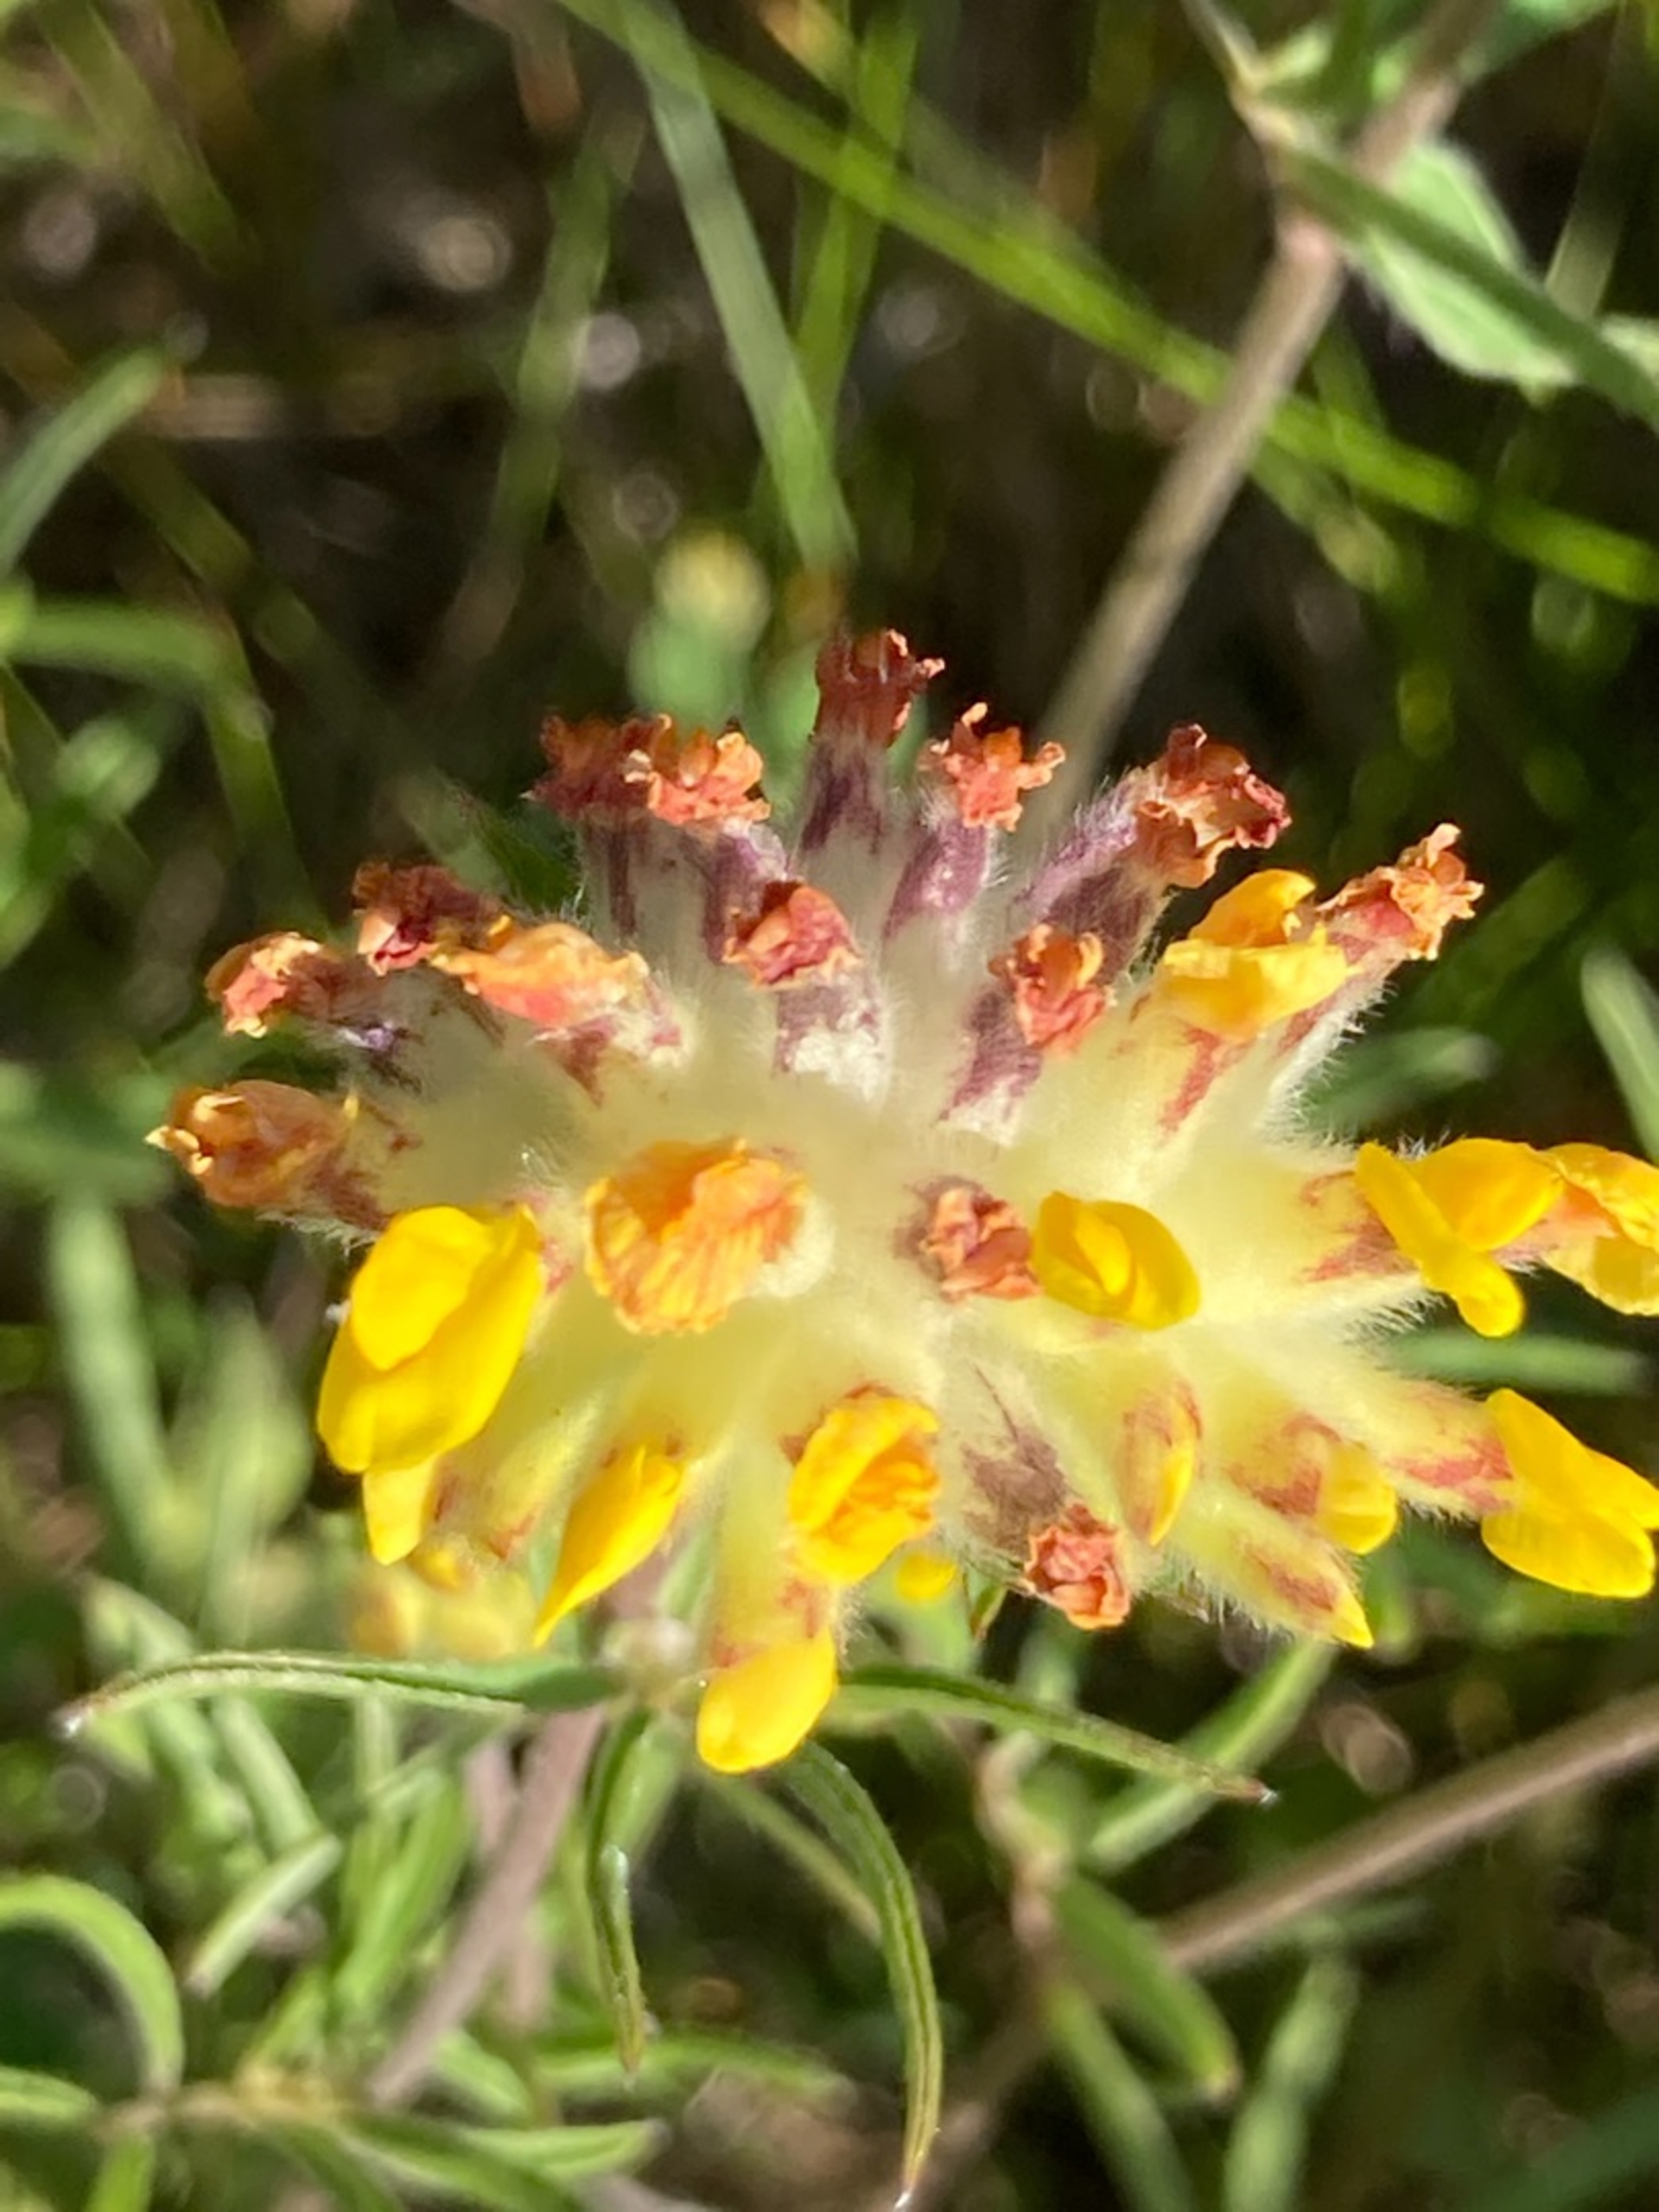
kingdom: Plantae
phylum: Tracheophyta
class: Magnoliopsida
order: Fabales
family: Fabaceae
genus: Anthyllis
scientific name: Anthyllis vulneraria
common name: Rundbælg
